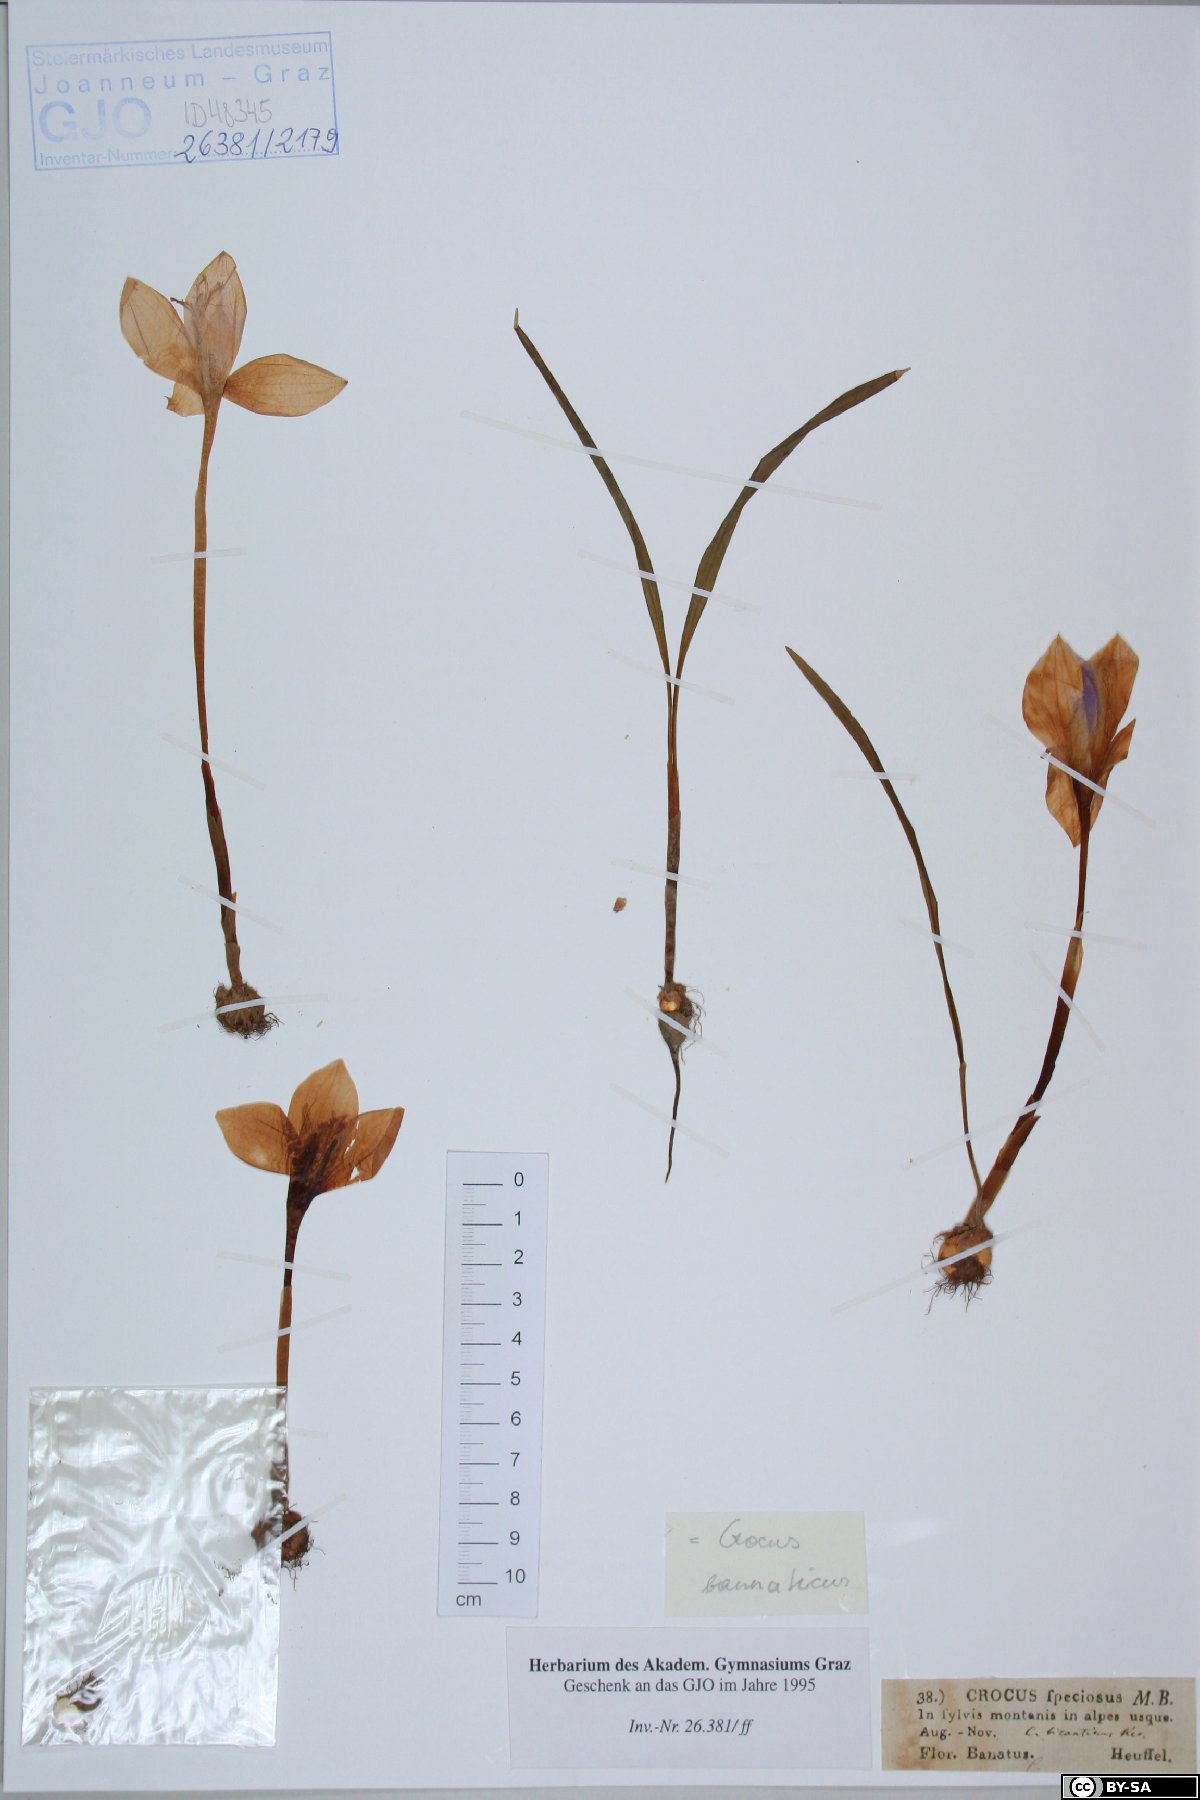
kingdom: Plantae
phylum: Tracheophyta
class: Liliopsida
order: Asparagales
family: Iridaceae
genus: Crocus
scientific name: Crocus speciosus
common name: Bieberstein's crocus
